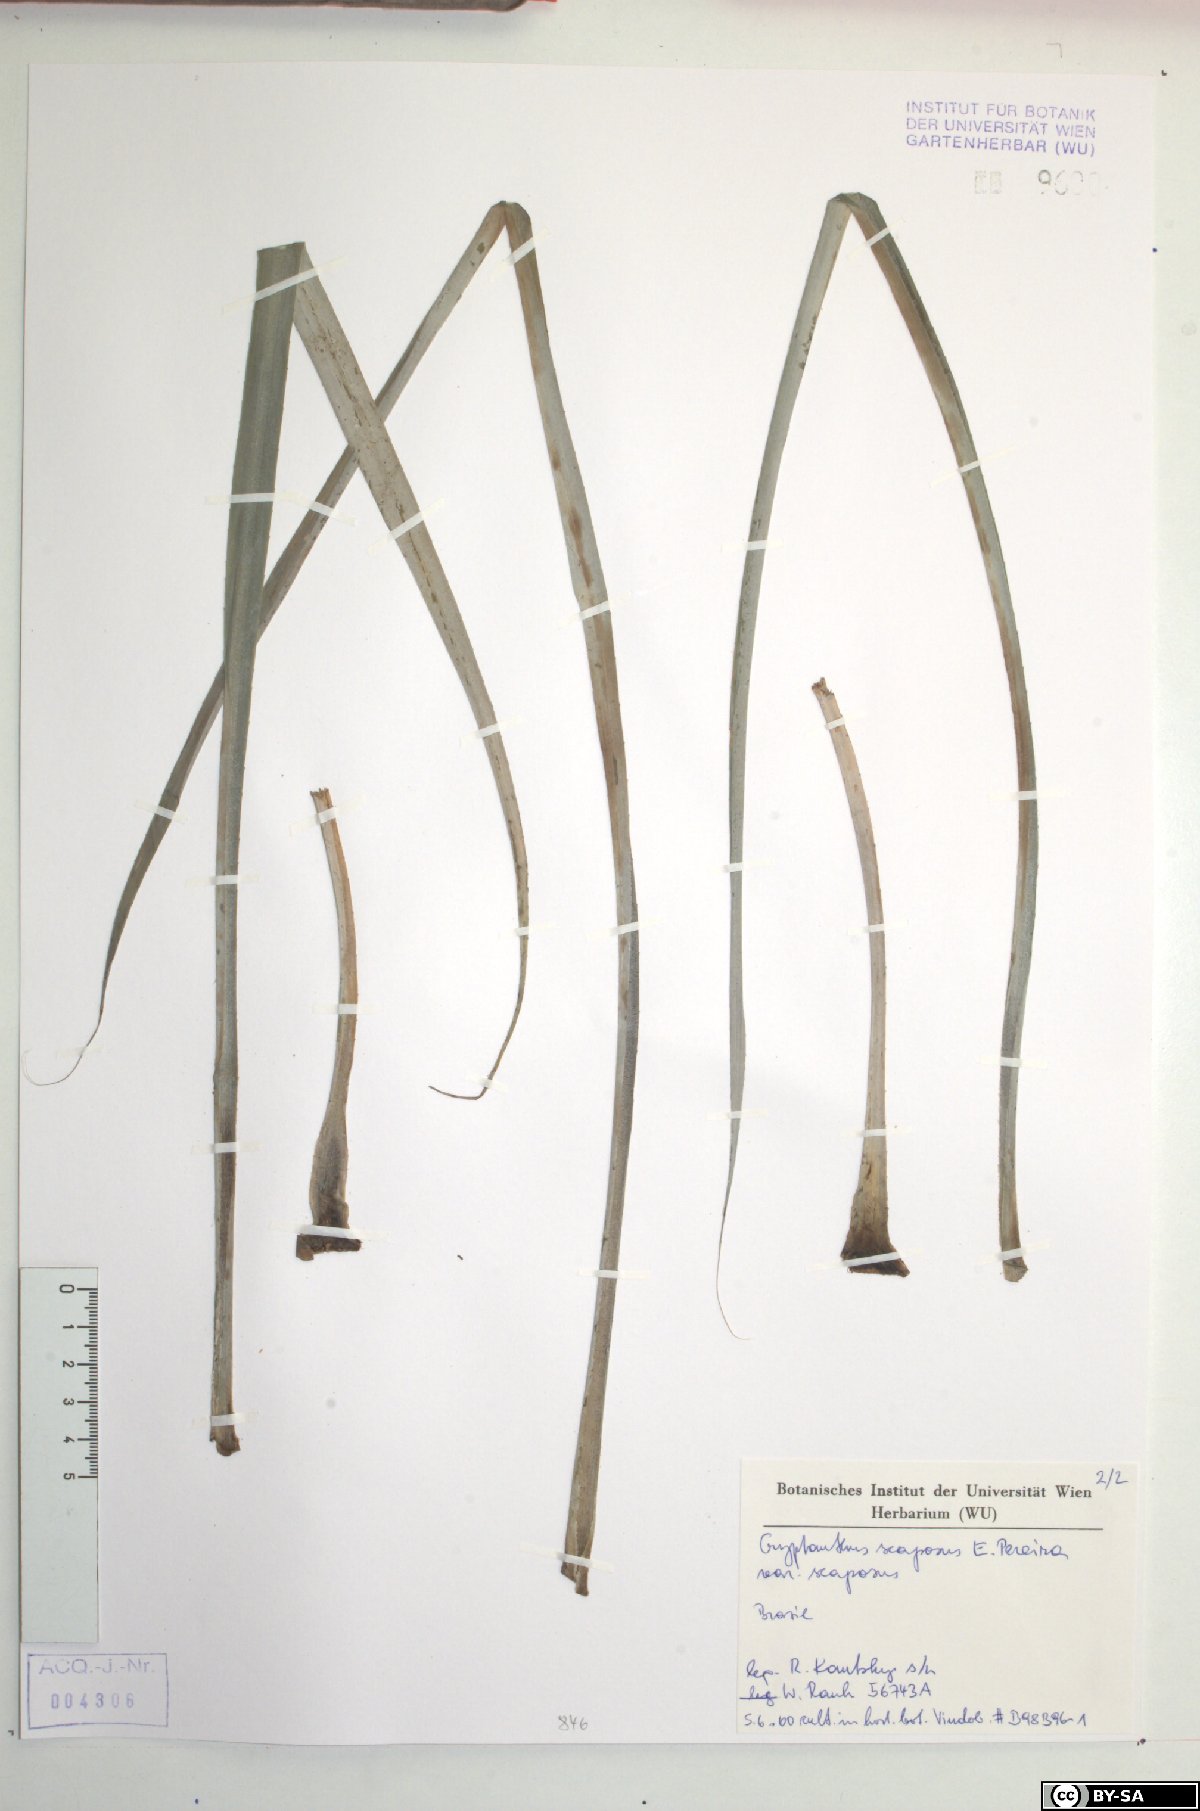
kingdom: Plantae
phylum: Tracheophyta
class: Liliopsida
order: Poales
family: Bromeliaceae
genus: Rokautskyia
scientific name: Rokautskyia scaposa
